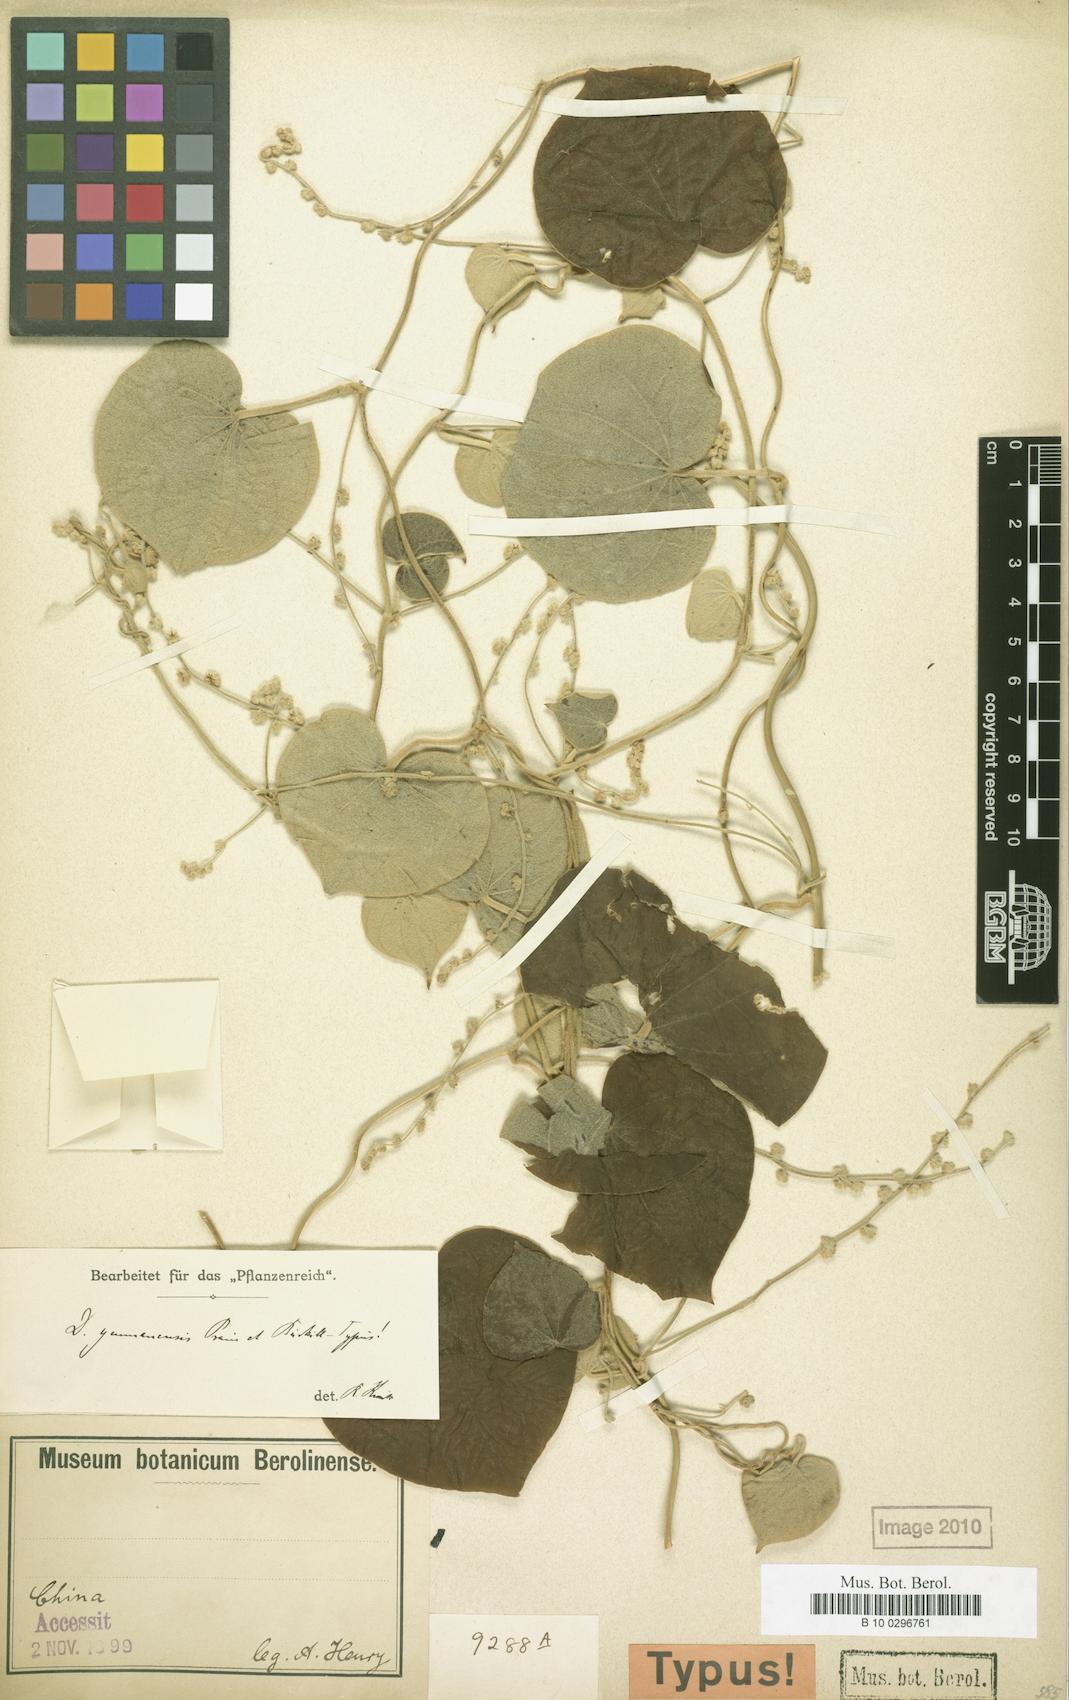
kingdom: Plantae
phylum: Tracheophyta
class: Liliopsida
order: Dioscoreales
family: Dioscoreaceae
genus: Dioscorea
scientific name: Dioscorea yunnanensis
